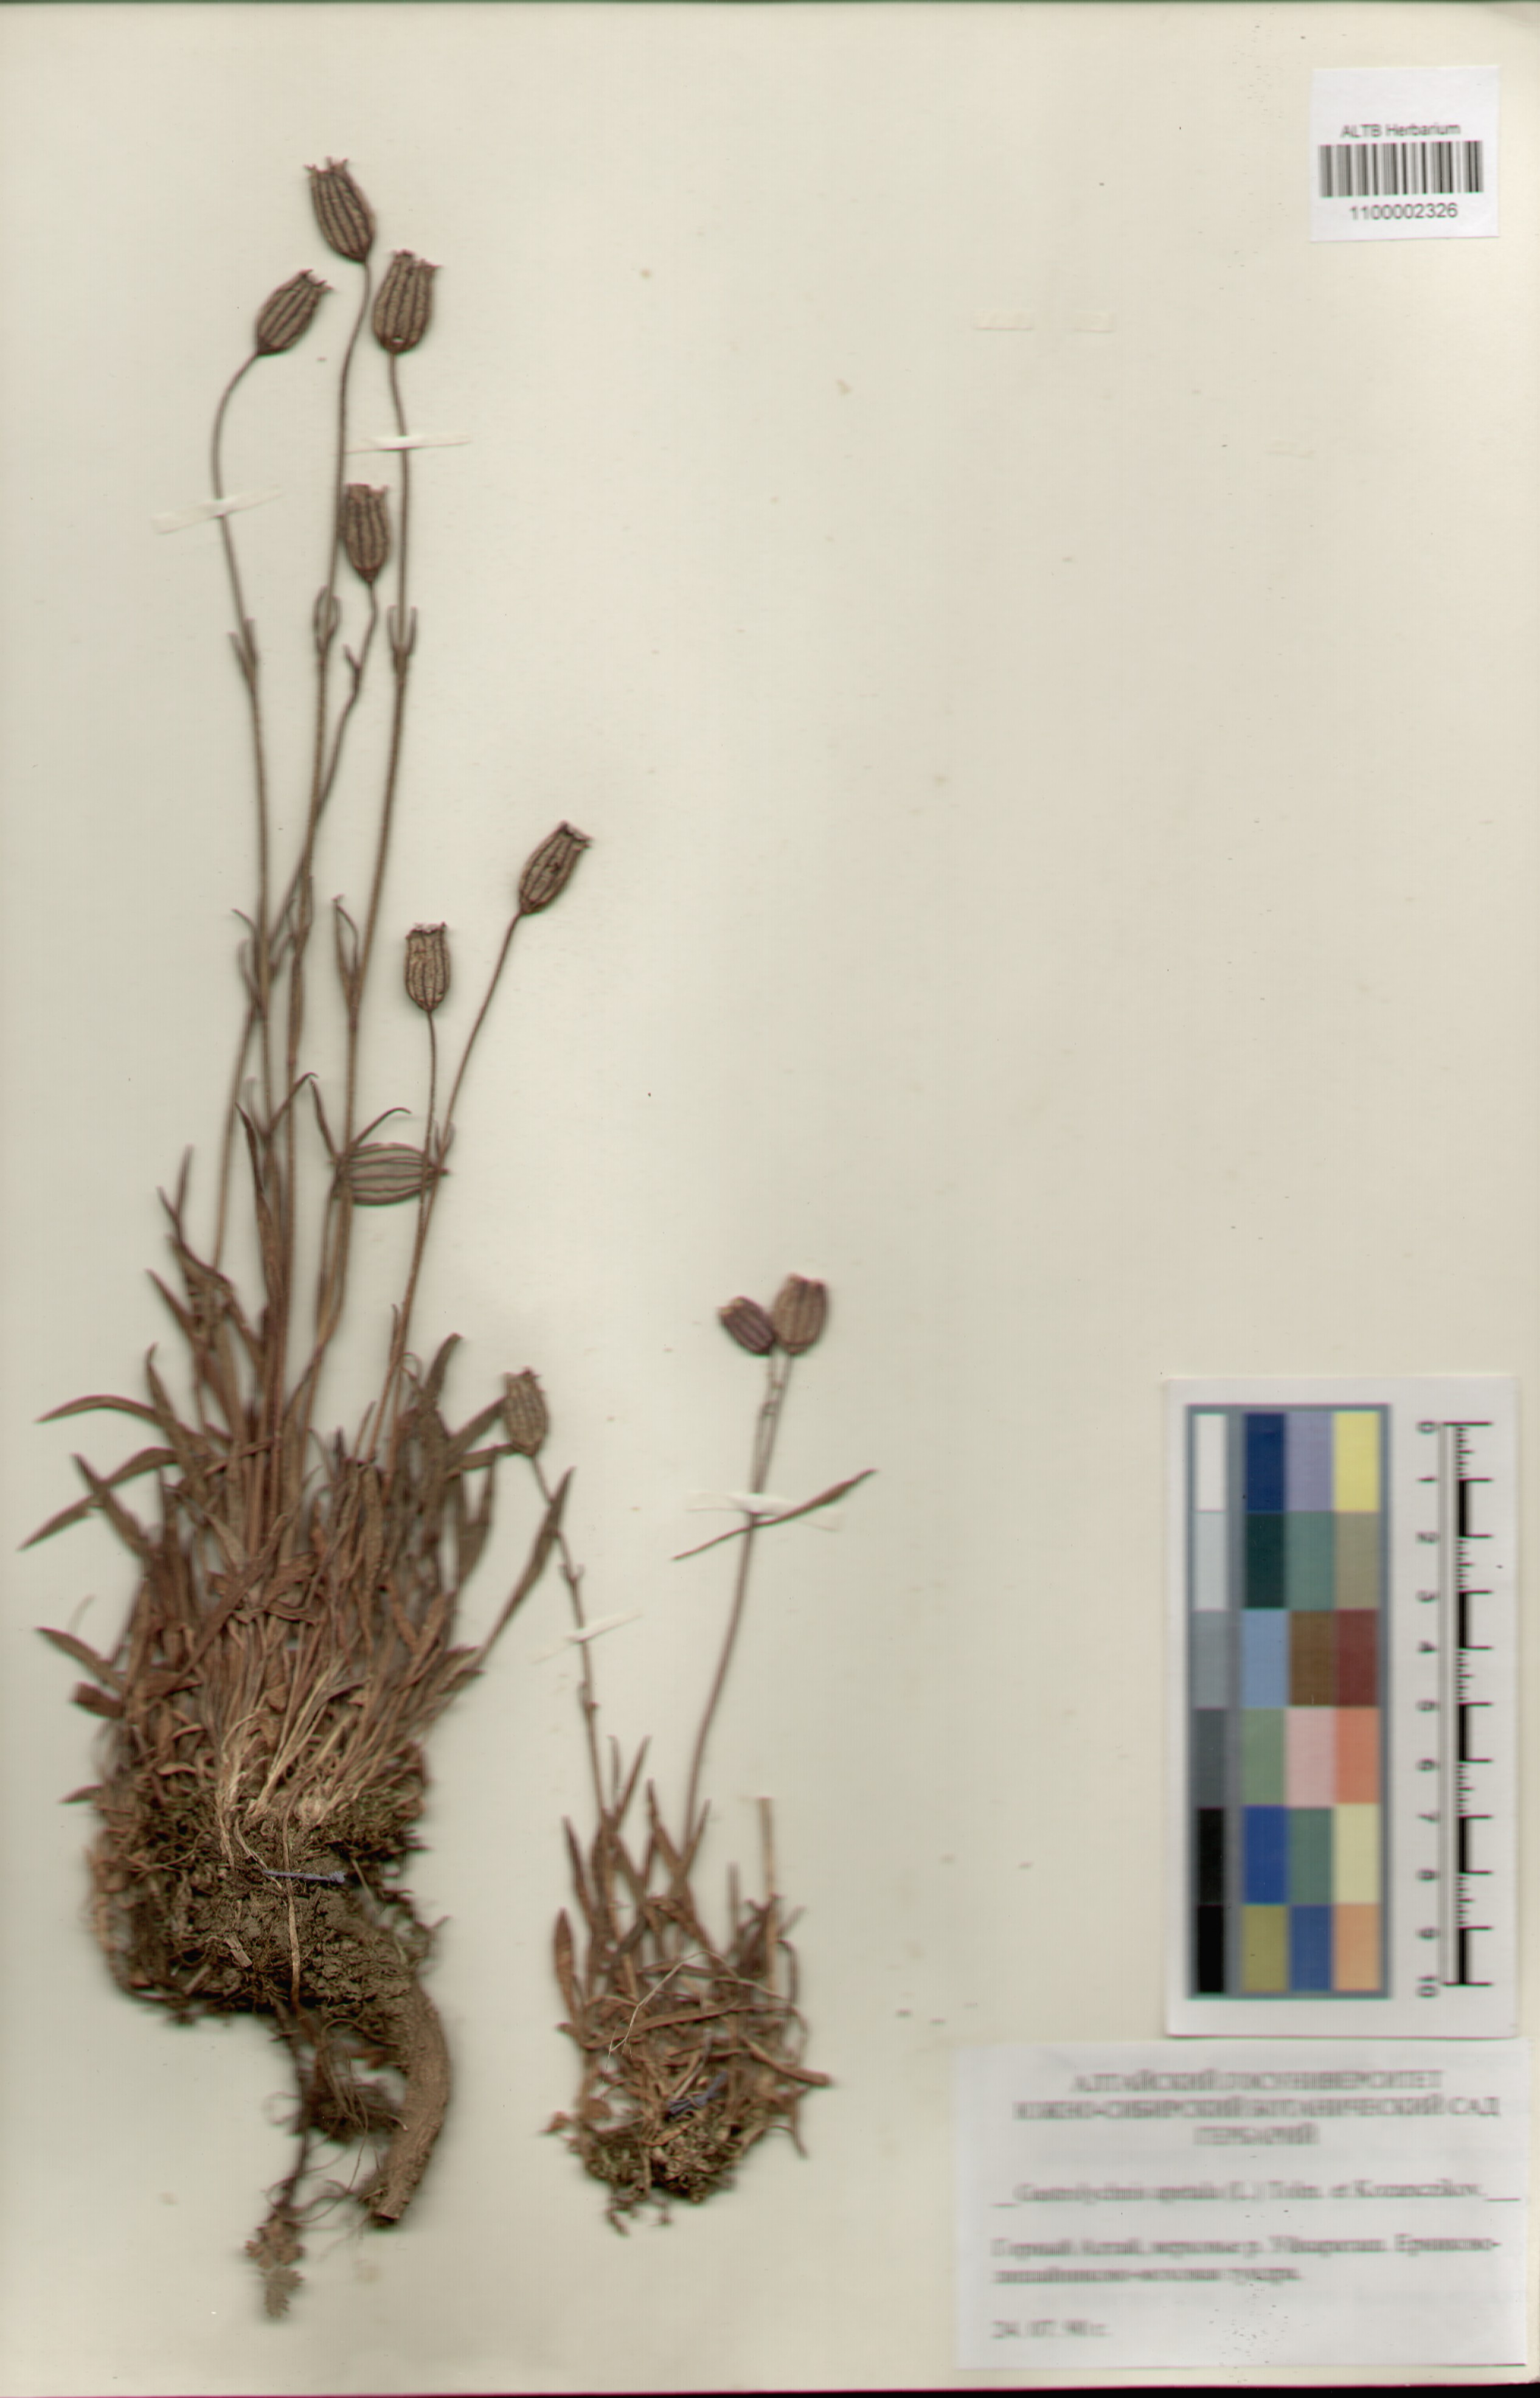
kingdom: Plantae
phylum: Tracheophyta
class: Magnoliopsida
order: Caryophyllales
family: Caryophyllaceae
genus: Silene
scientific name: Silene wahlbergella
